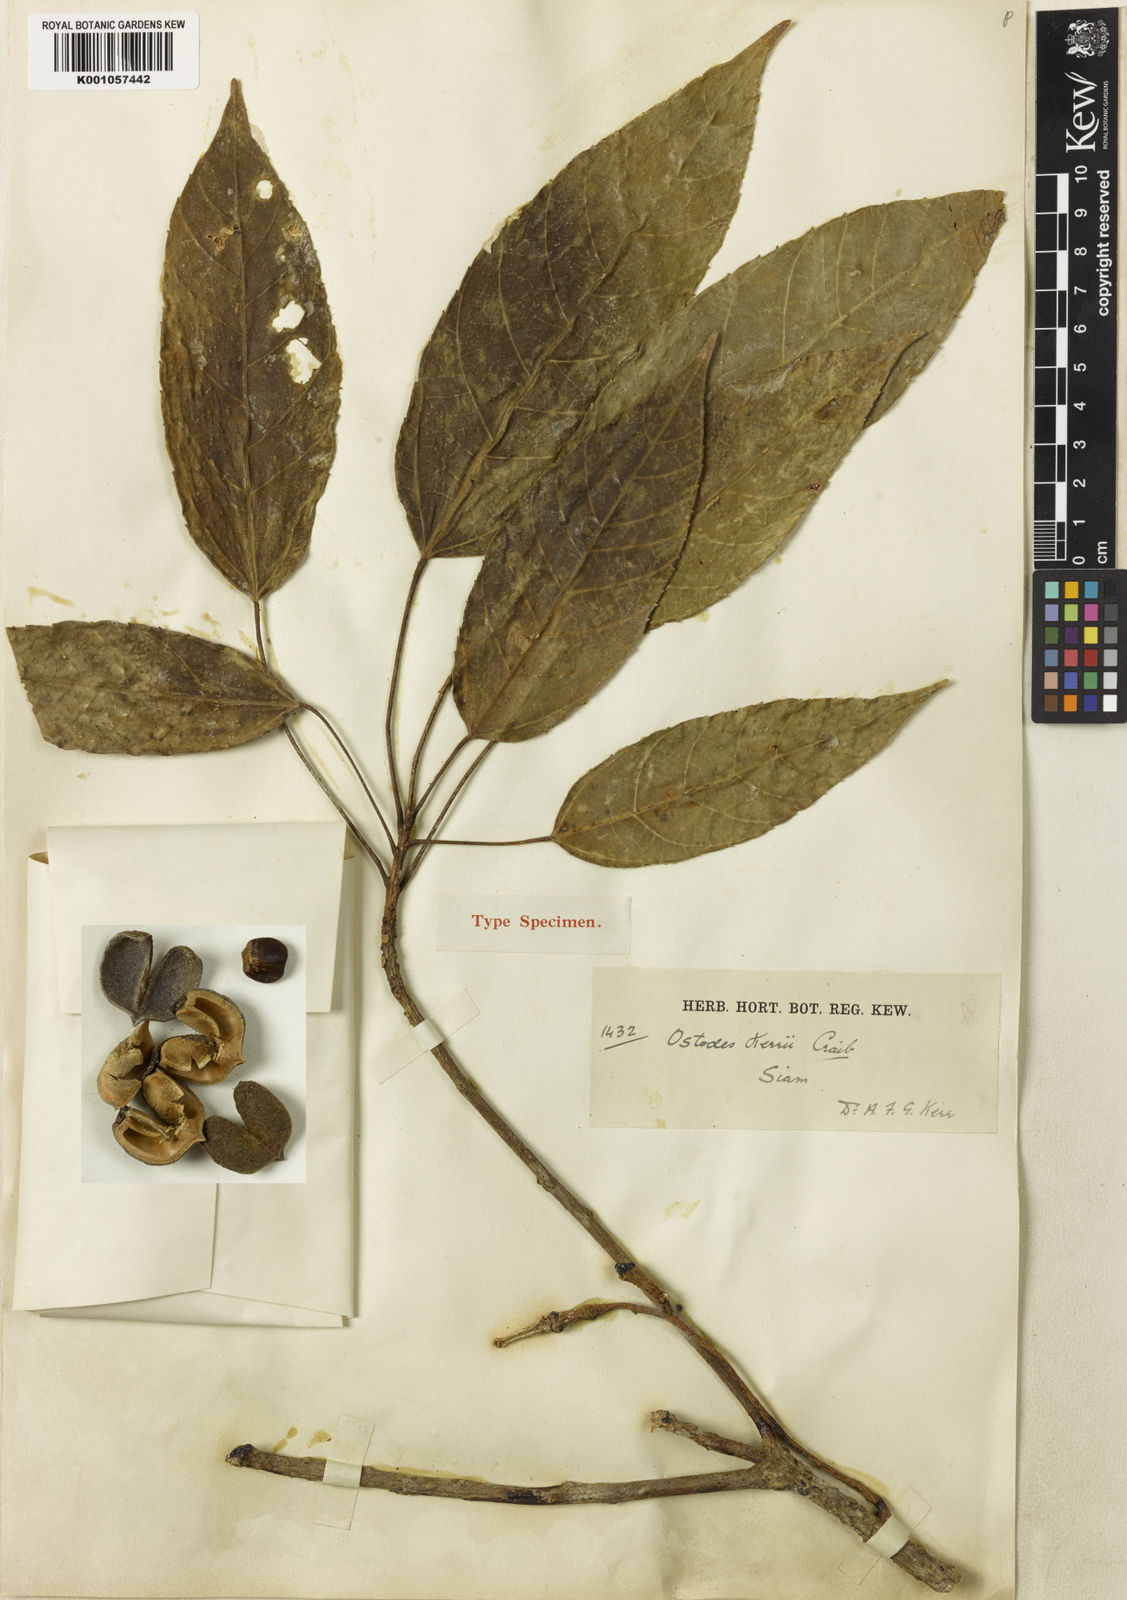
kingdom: Plantae
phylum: Tracheophyta
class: Magnoliopsida
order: Malpighiales
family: Euphorbiaceae
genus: Ostodes
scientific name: Ostodes paniculata
